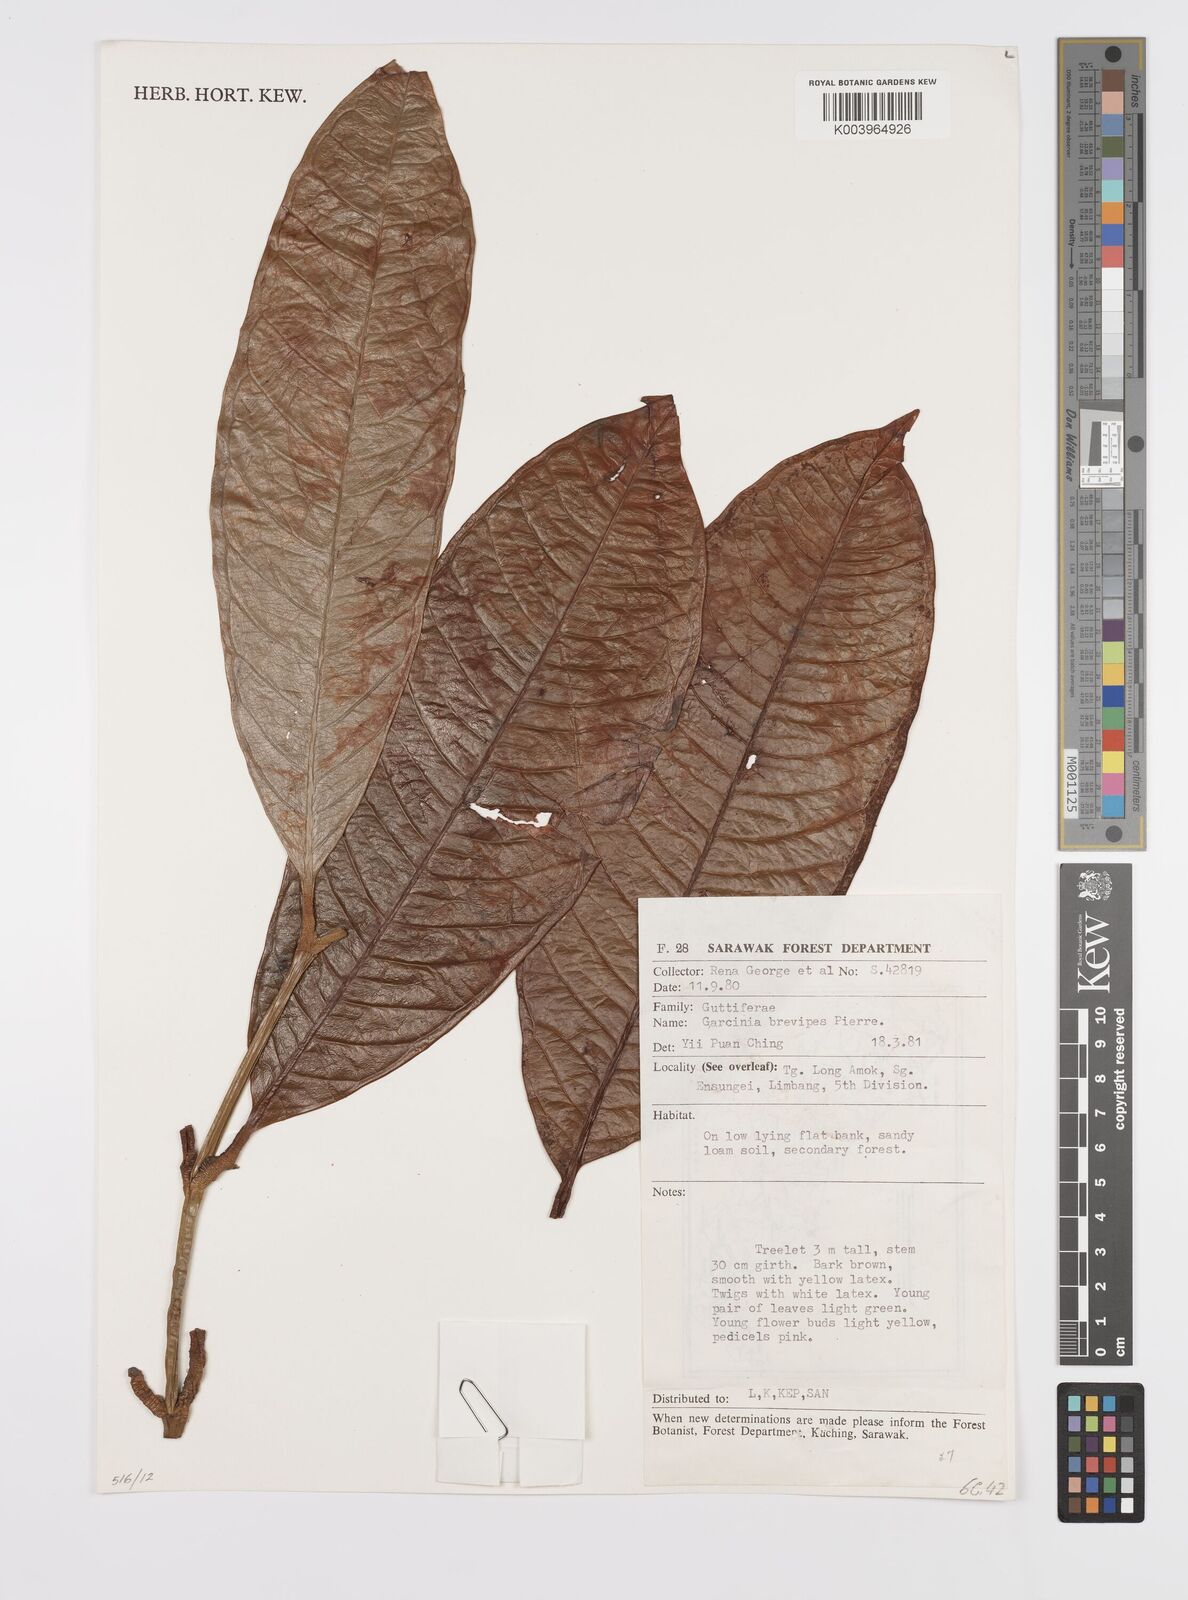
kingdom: Plantae
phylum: Tracheophyta
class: Magnoliopsida
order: Malpighiales
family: Clusiaceae
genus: Garcinia
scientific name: Garcinia brevipes
